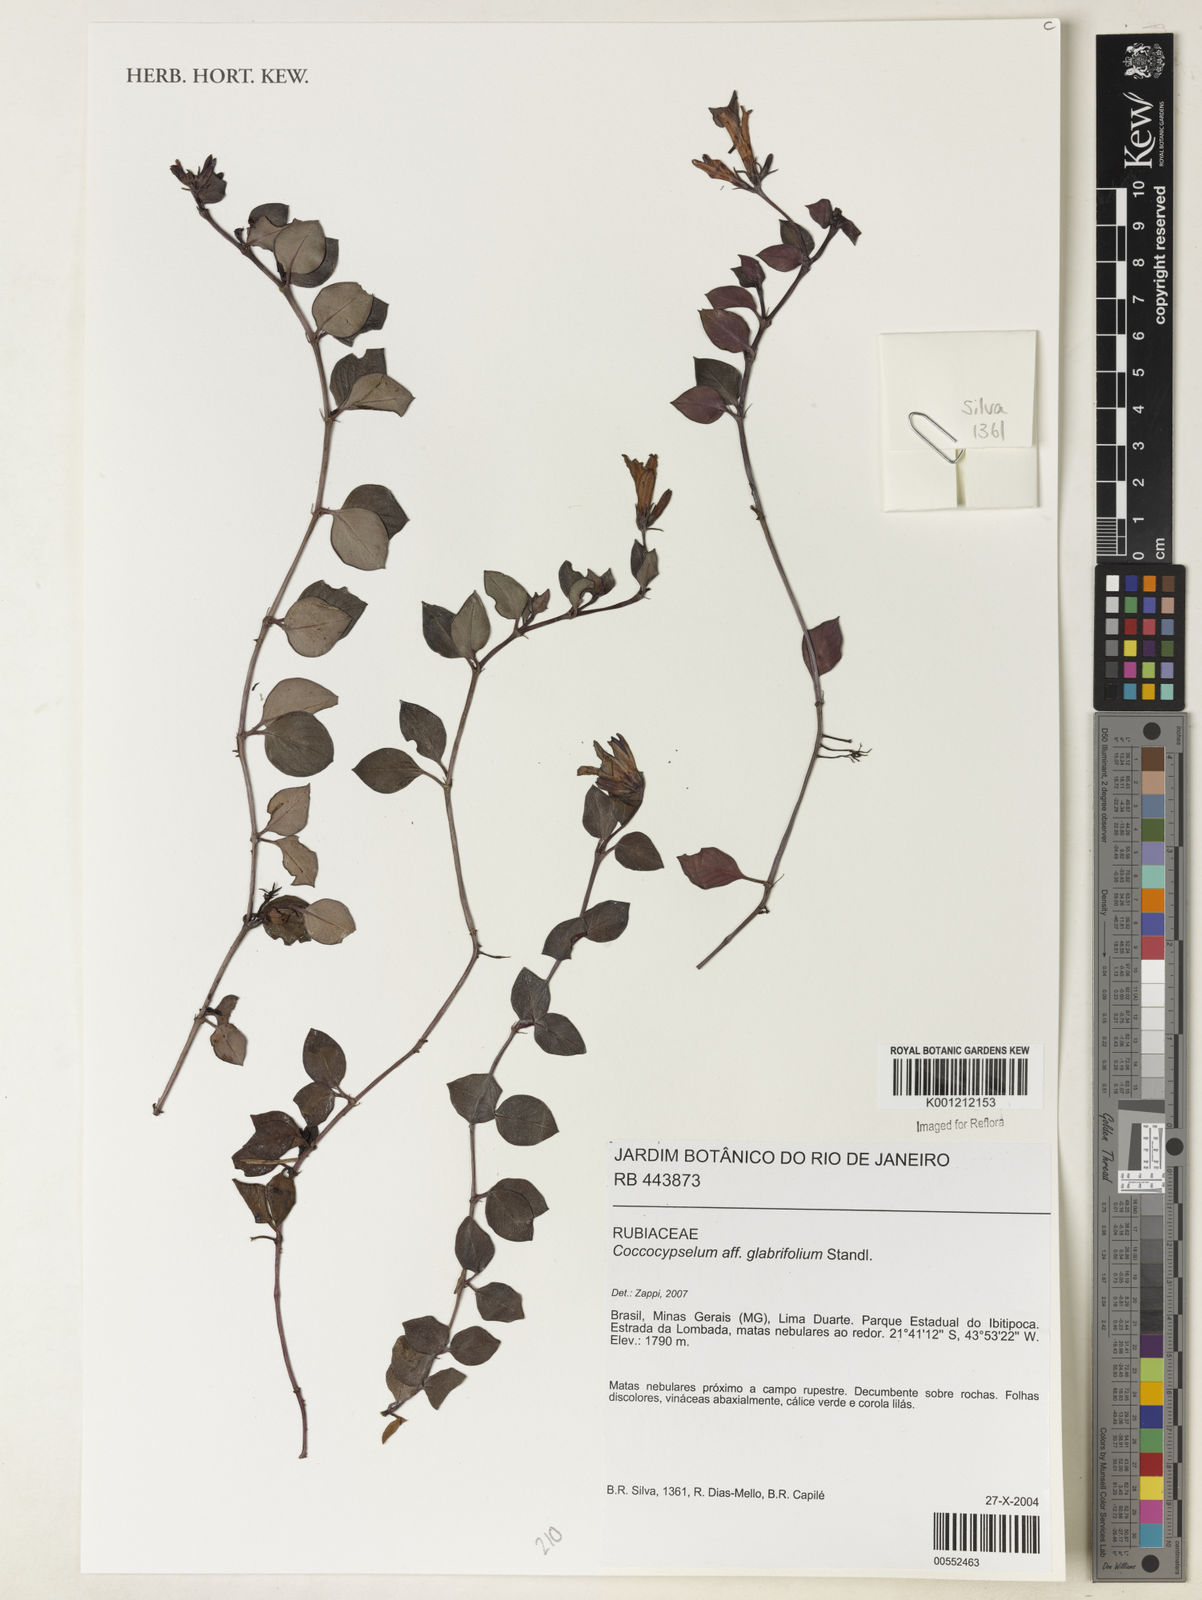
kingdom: Plantae
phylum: Tracheophyta
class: Magnoliopsida
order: Gentianales
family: Rubiaceae
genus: Coccocypselum
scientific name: Coccocypselum glabrifolium
